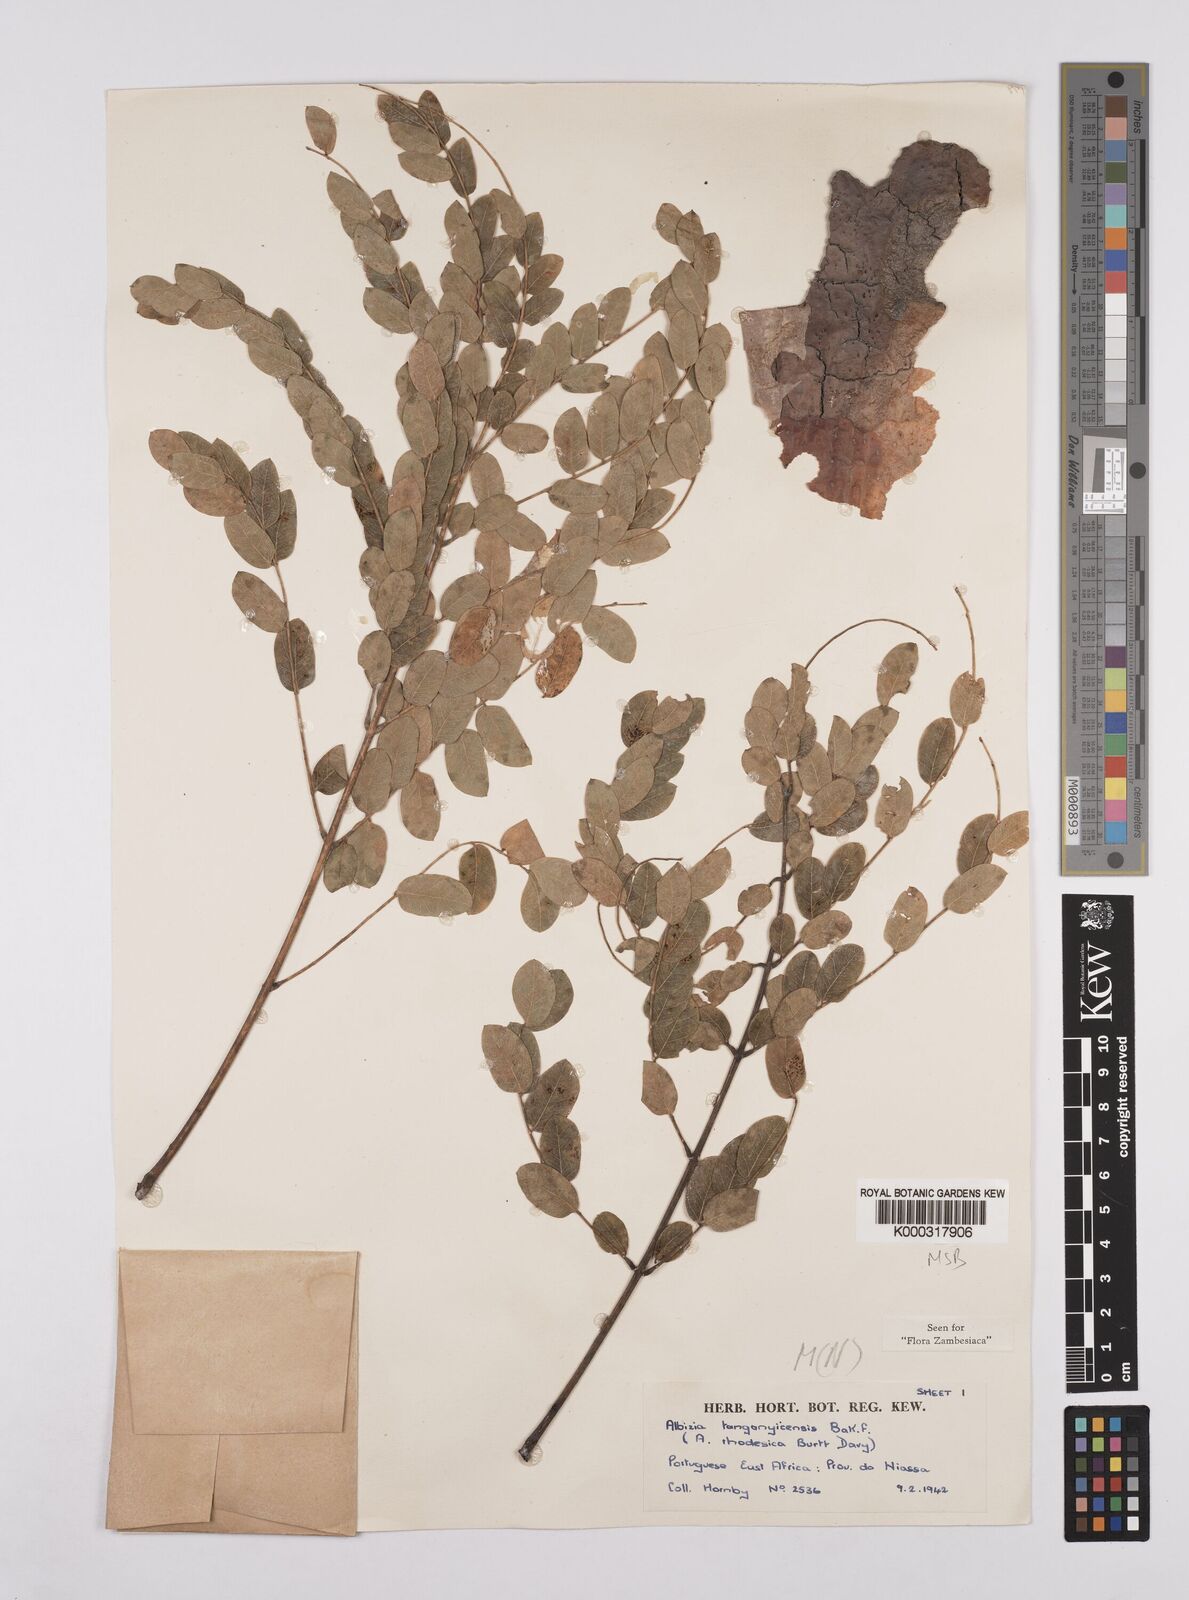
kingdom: Plantae
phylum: Tracheophyta
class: Magnoliopsida
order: Fabales
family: Fabaceae
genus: Albizia
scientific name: Albizia tanganyicensis
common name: Paperbark false thorn
